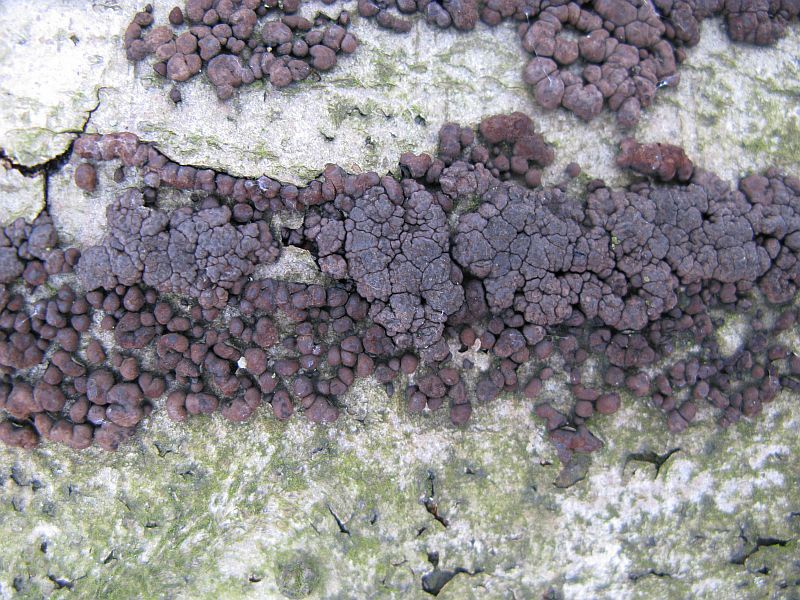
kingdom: Fungi
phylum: Ascomycota
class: Sordariomycetes
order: Xylariales
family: Hypoxylaceae
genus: Jackrogersella
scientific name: Jackrogersella cohaerens
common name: sammenflydende kulbær
